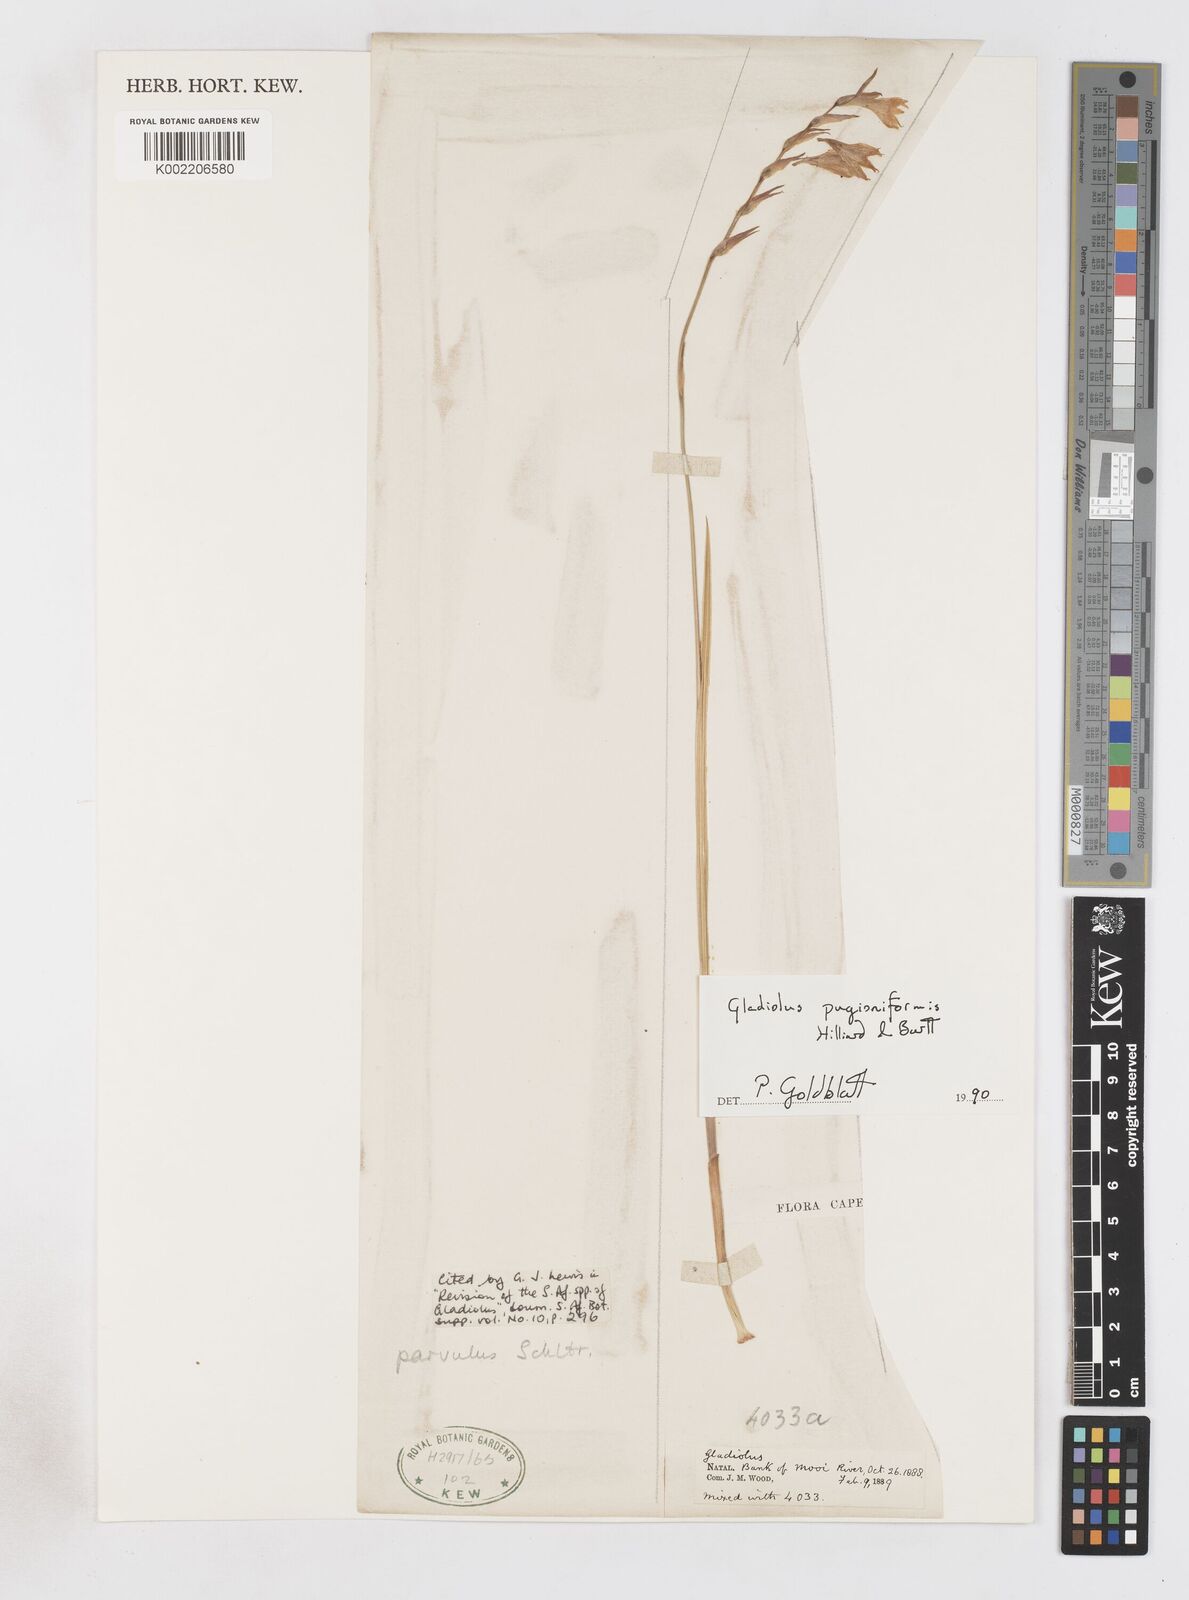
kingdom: Plantae
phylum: Tracheophyta
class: Liliopsida
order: Asparagales
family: Iridaceae
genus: Gladiolus
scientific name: Gladiolus pubigerus
